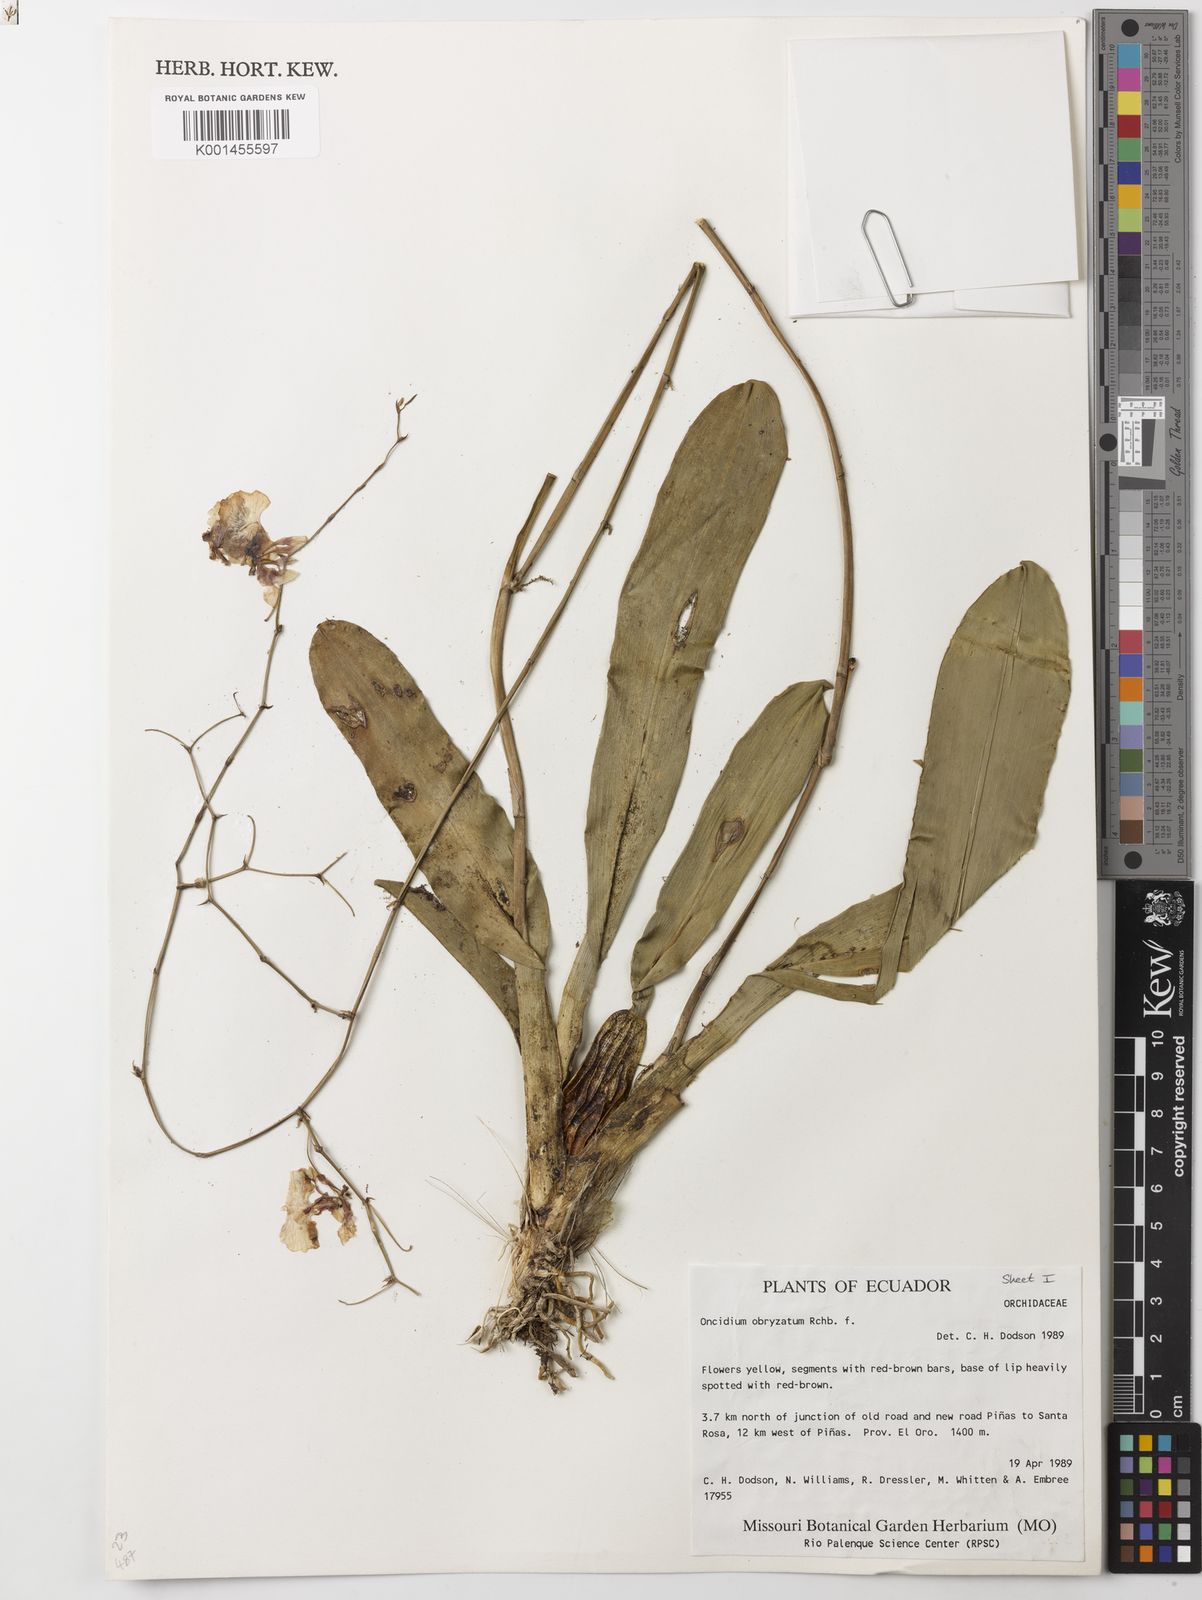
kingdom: Plantae
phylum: Tracheophyta
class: Liliopsida
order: Asparagales
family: Orchidaceae
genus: Oncidium
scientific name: Oncidium obryzatum
